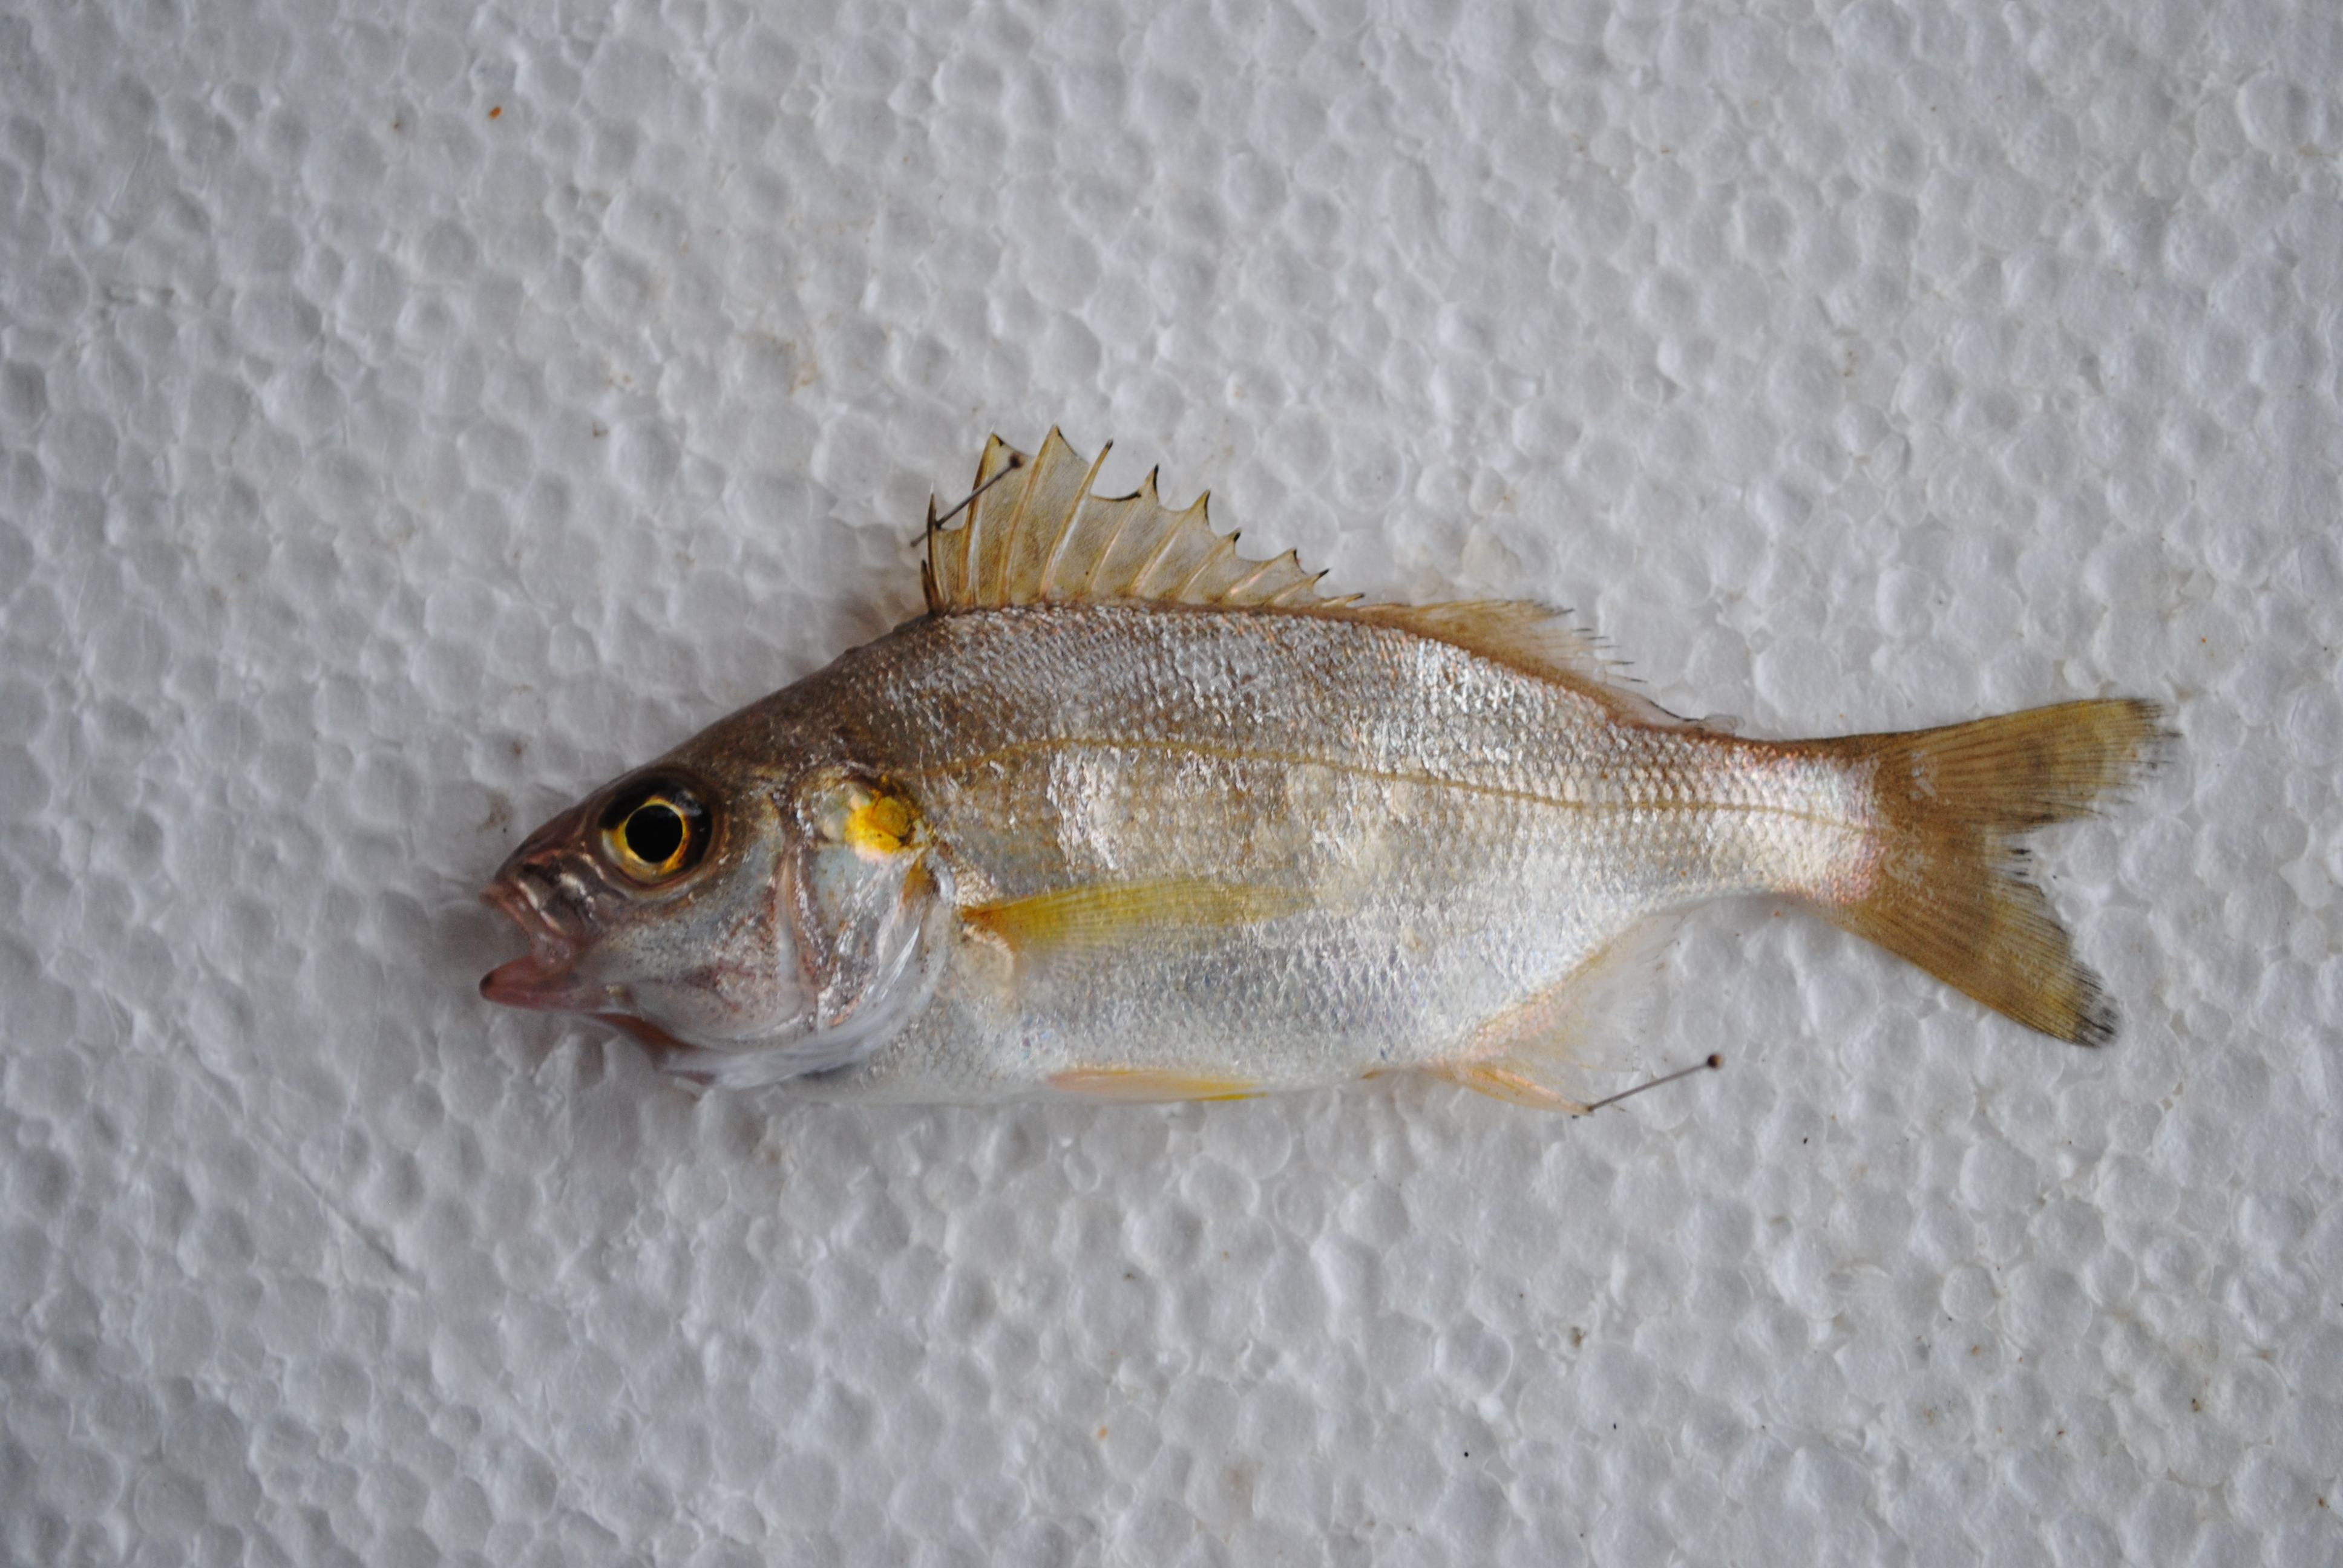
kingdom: Animalia
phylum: Chordata
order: Perciformes
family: Haemulidae
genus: Pomadasys
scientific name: Pomadasys olivaceus
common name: Olive grunt
